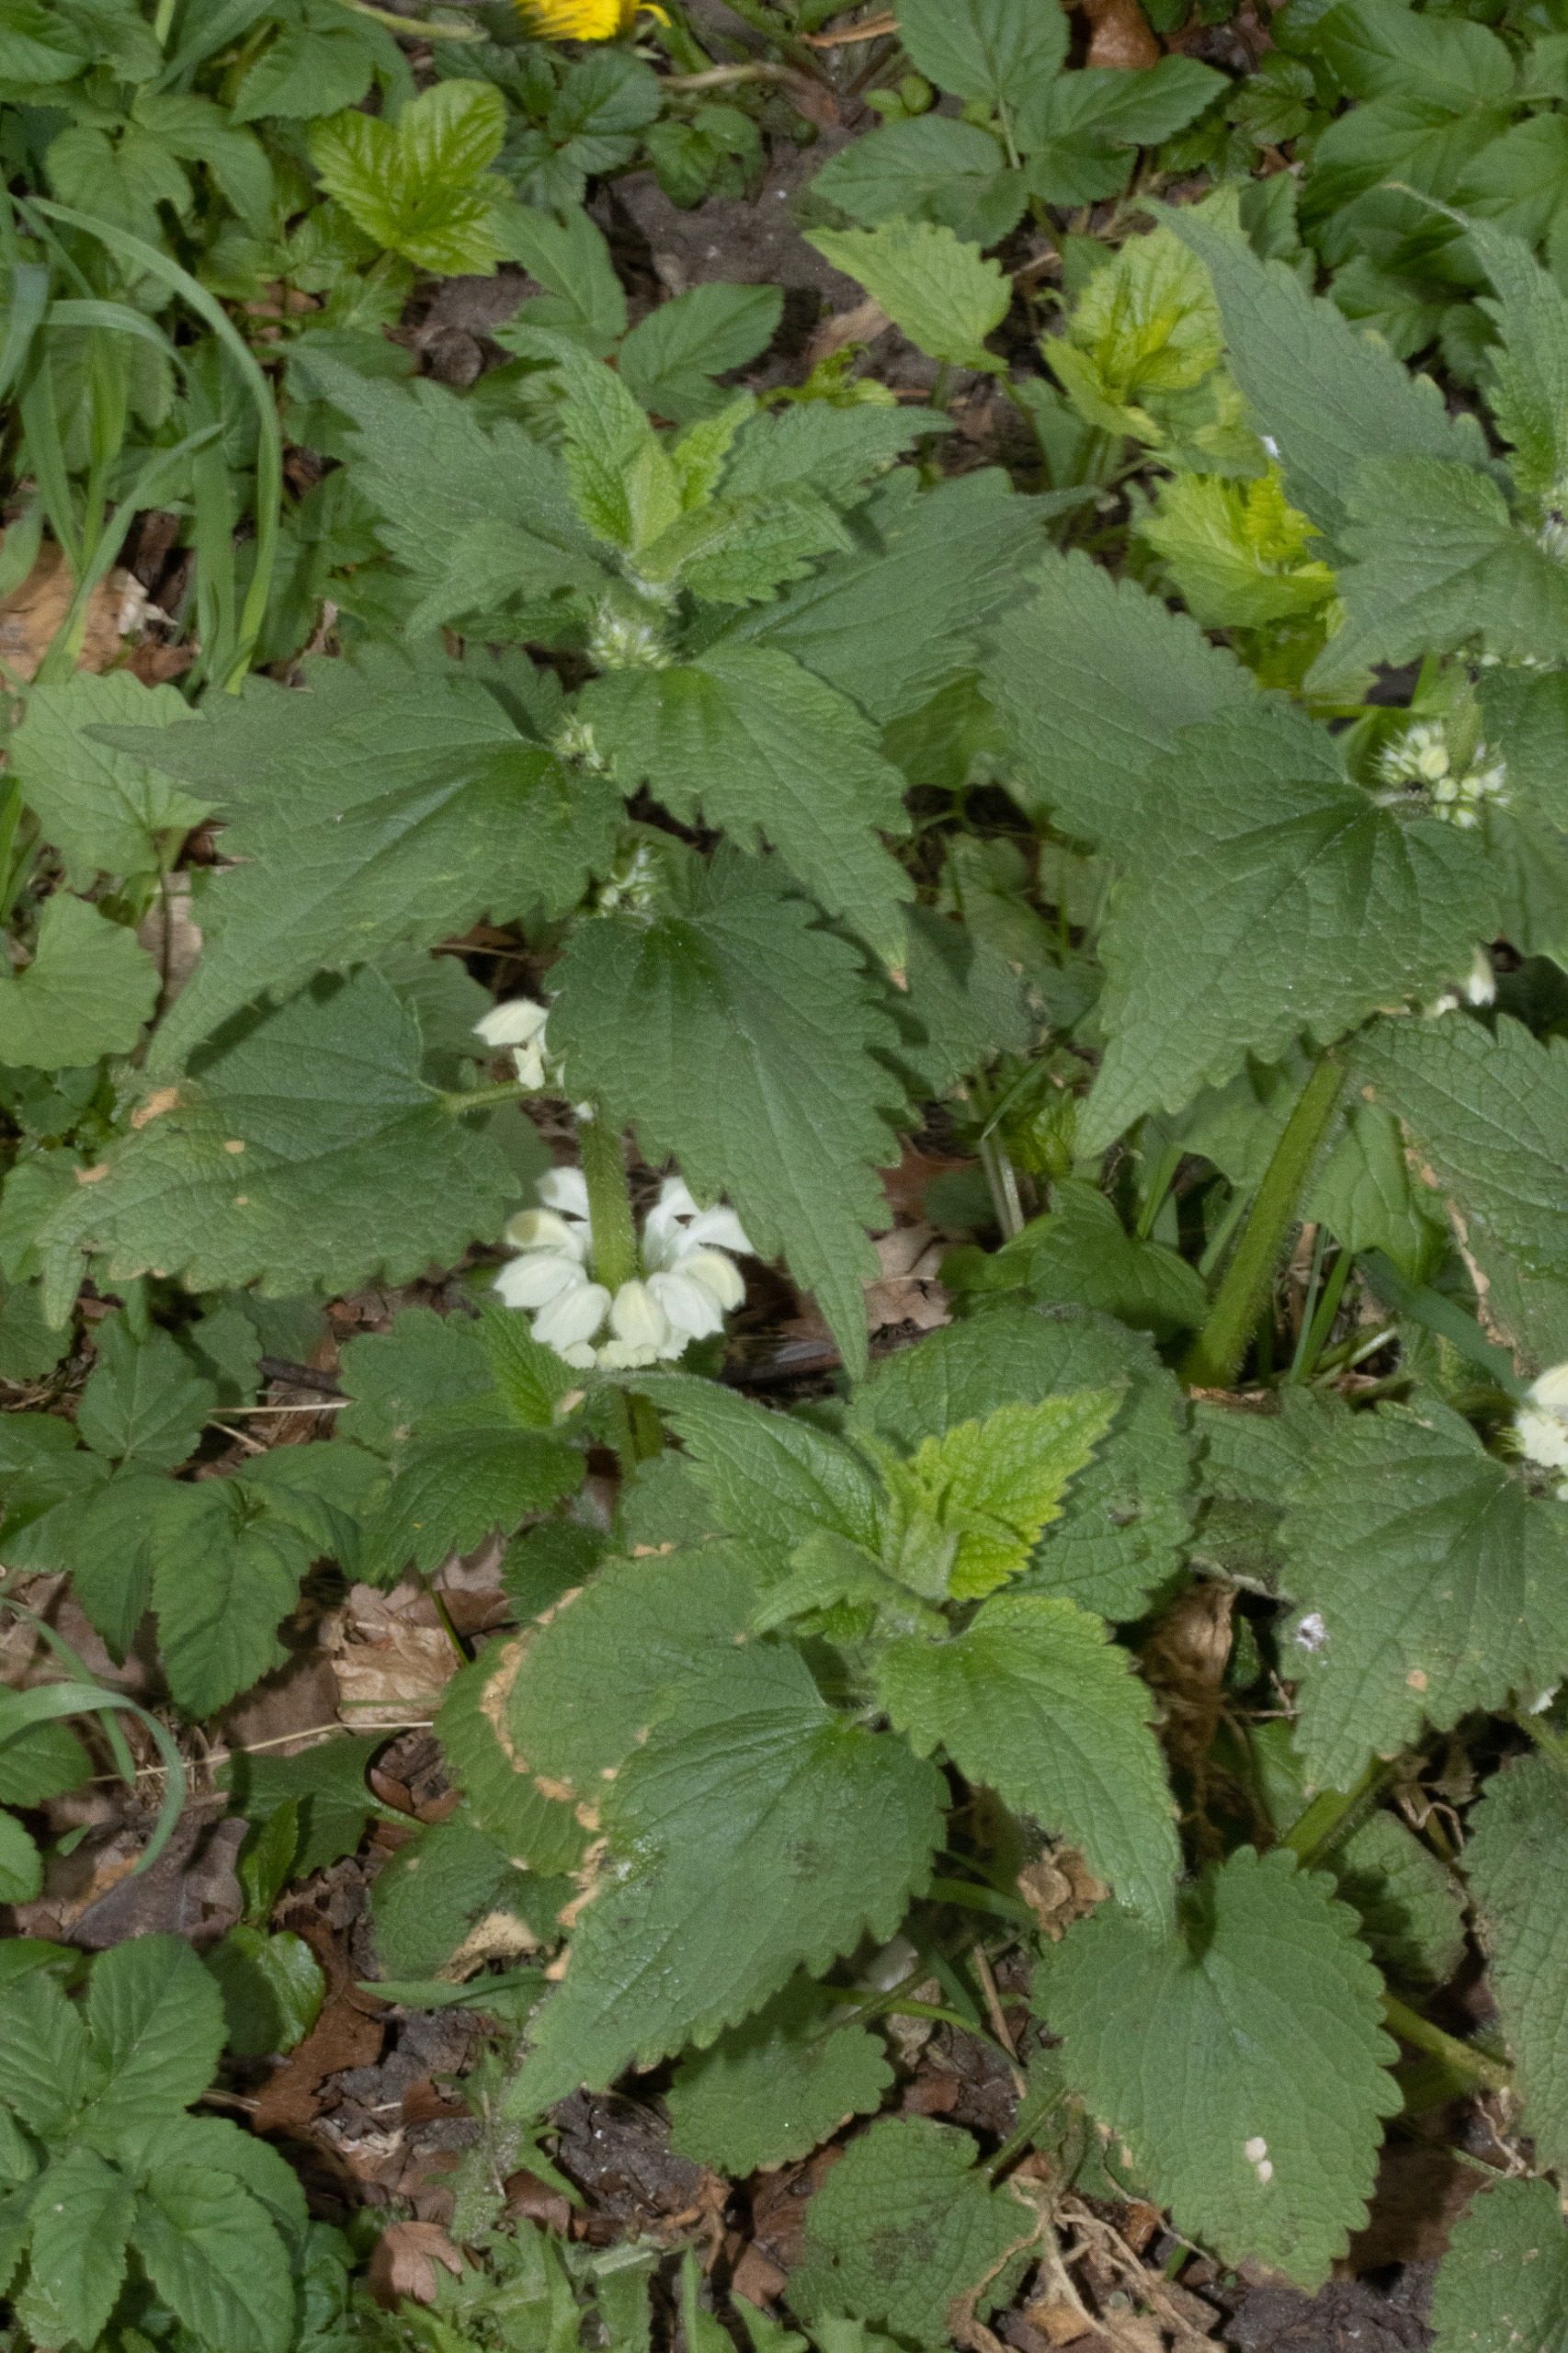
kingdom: Plantae
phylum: Tracheophyta
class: Magnoliopsida
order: Lamiales
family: Lamiaceae
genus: Lamium
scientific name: Lamium album
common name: Døvnælde
